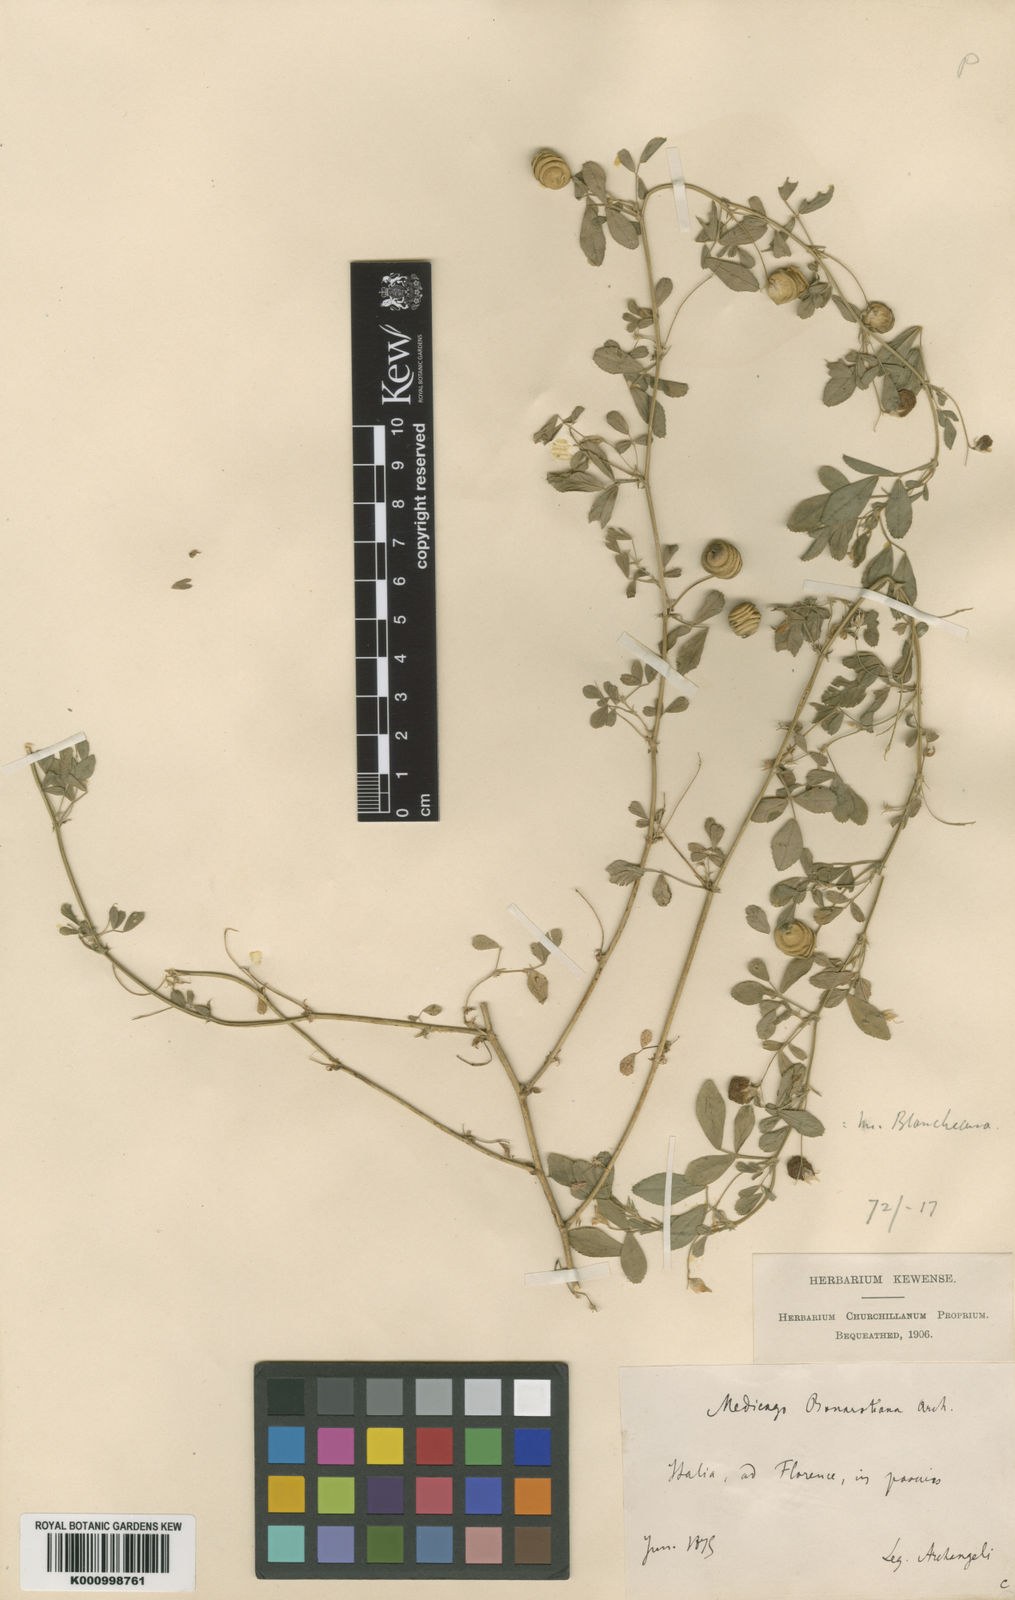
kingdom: Plantae
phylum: Tracheophyta
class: Magnoliopsida
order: Fabales
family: Fabaceae
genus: Medicago
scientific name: Medicago blancheana
